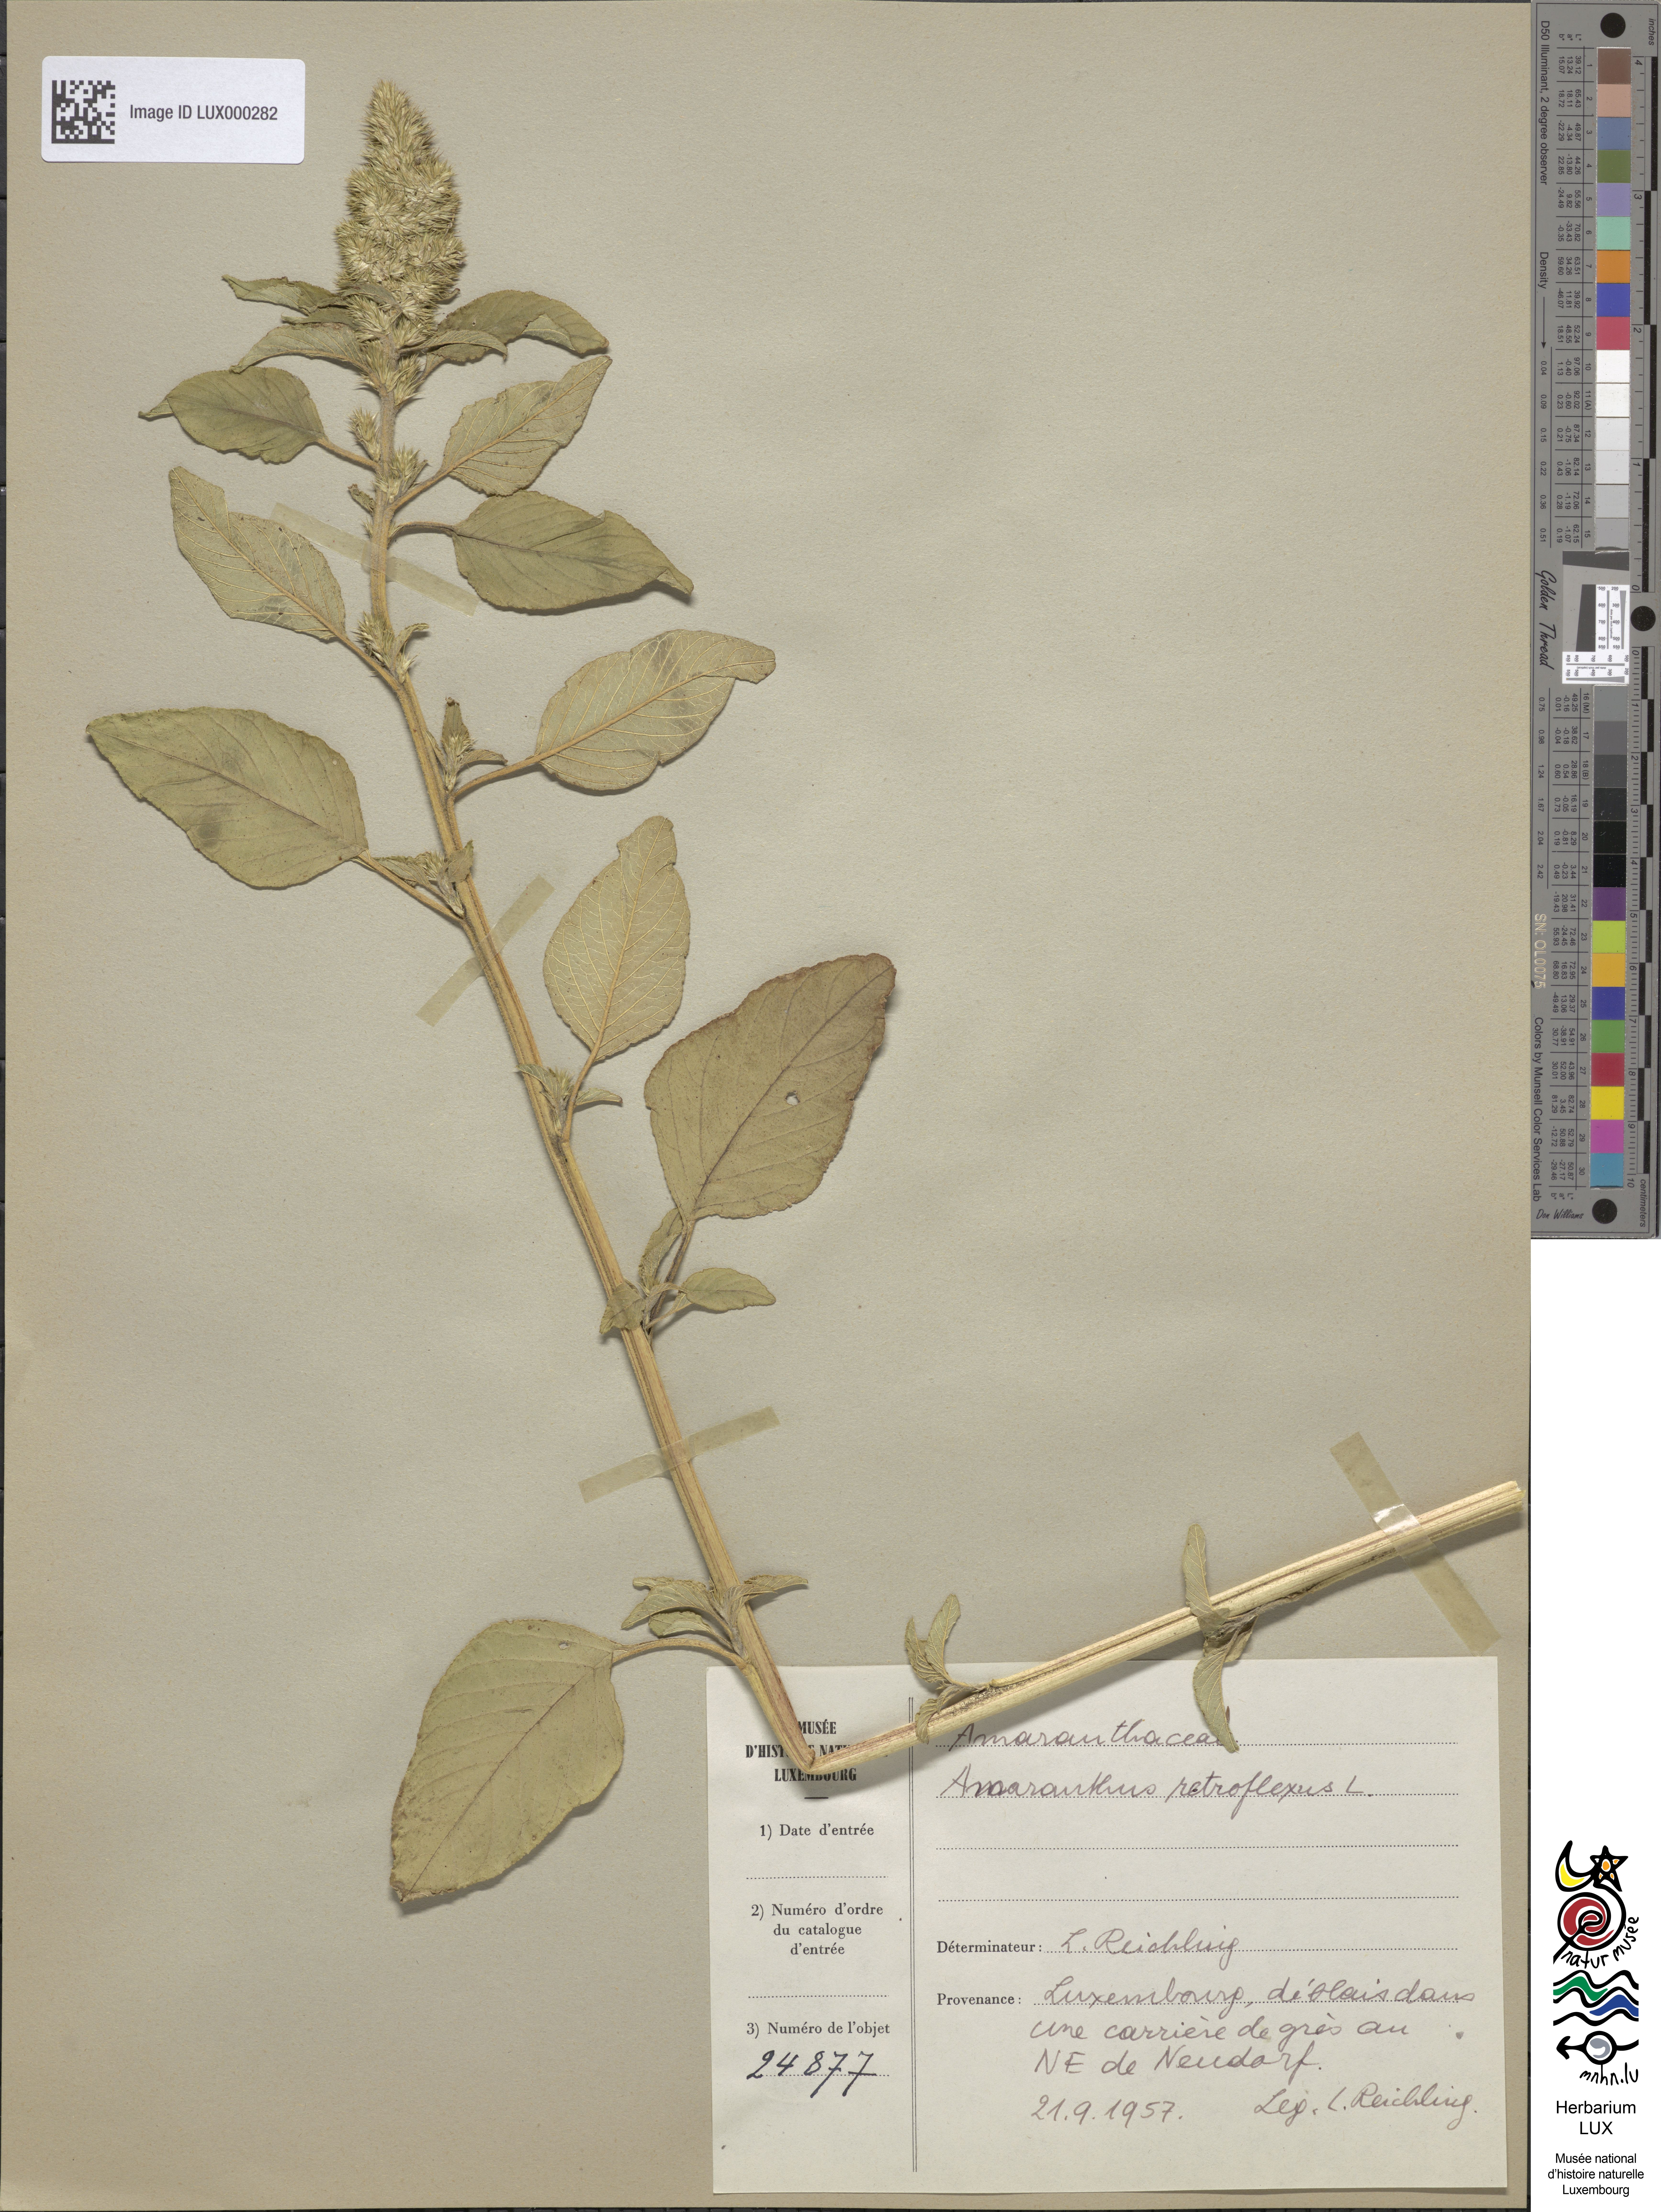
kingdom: Plantae
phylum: Tracheophyta
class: Magnoliopsida
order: Caryophyllales
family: Amaranthaceae
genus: Amaranthus
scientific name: Amaranthus retroflexus
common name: Redroot amaranth
